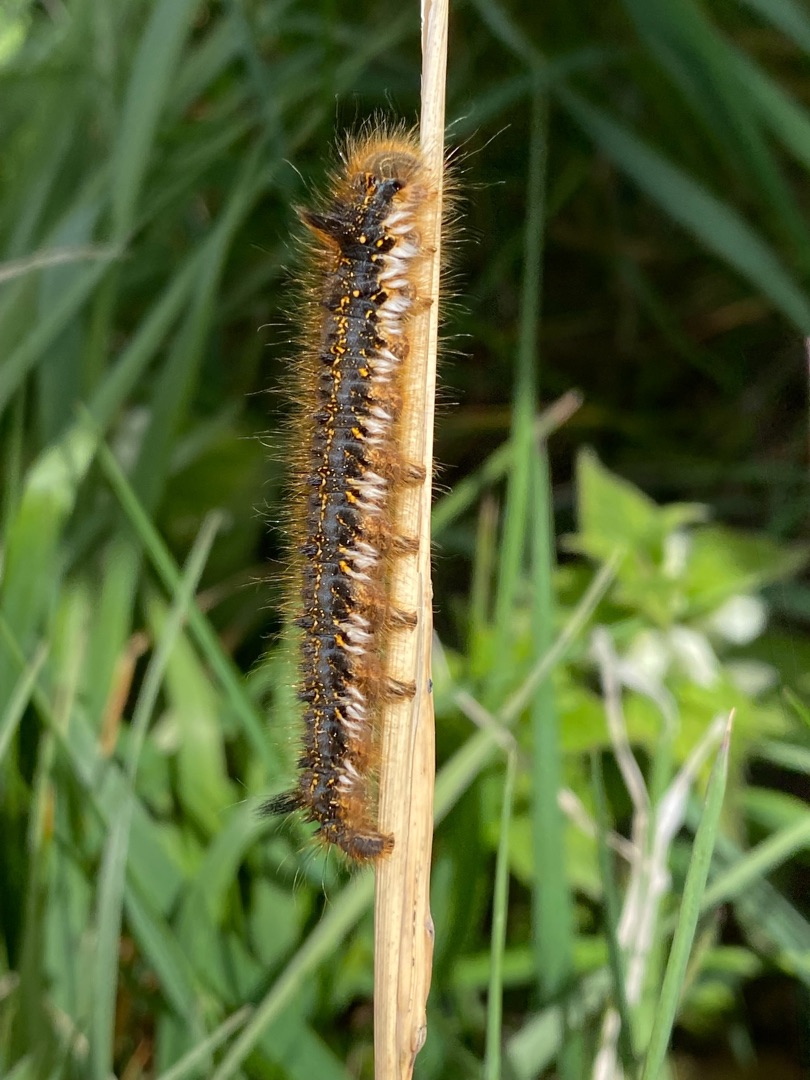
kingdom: Animalia
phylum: Arthropoda
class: Insecta
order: Lepidoptera
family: Lasiocampidae
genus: Euthrix
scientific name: Euthrix potatoria
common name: Græsspinder
